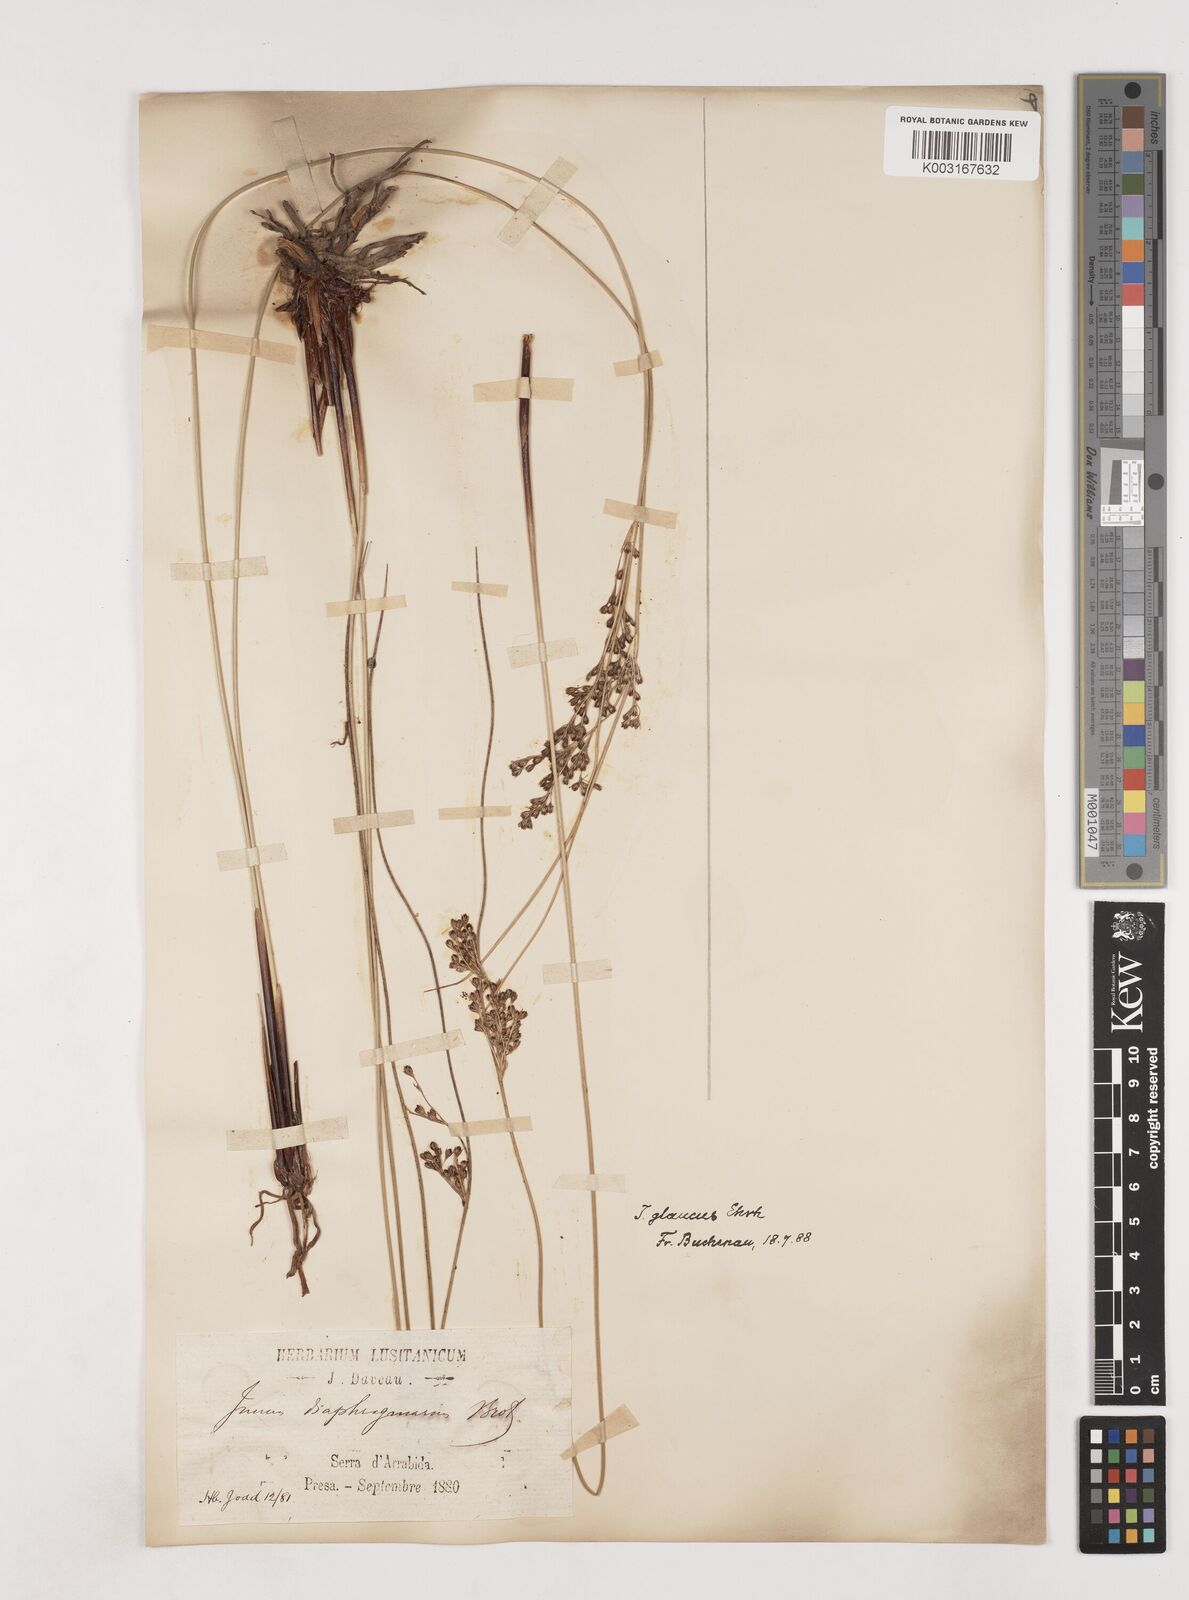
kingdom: Plantae
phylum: Tracheophyta
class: Liliopsida
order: Poales
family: Juncaceae
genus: Juncus
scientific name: Juncus inflexus
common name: Hard rush
